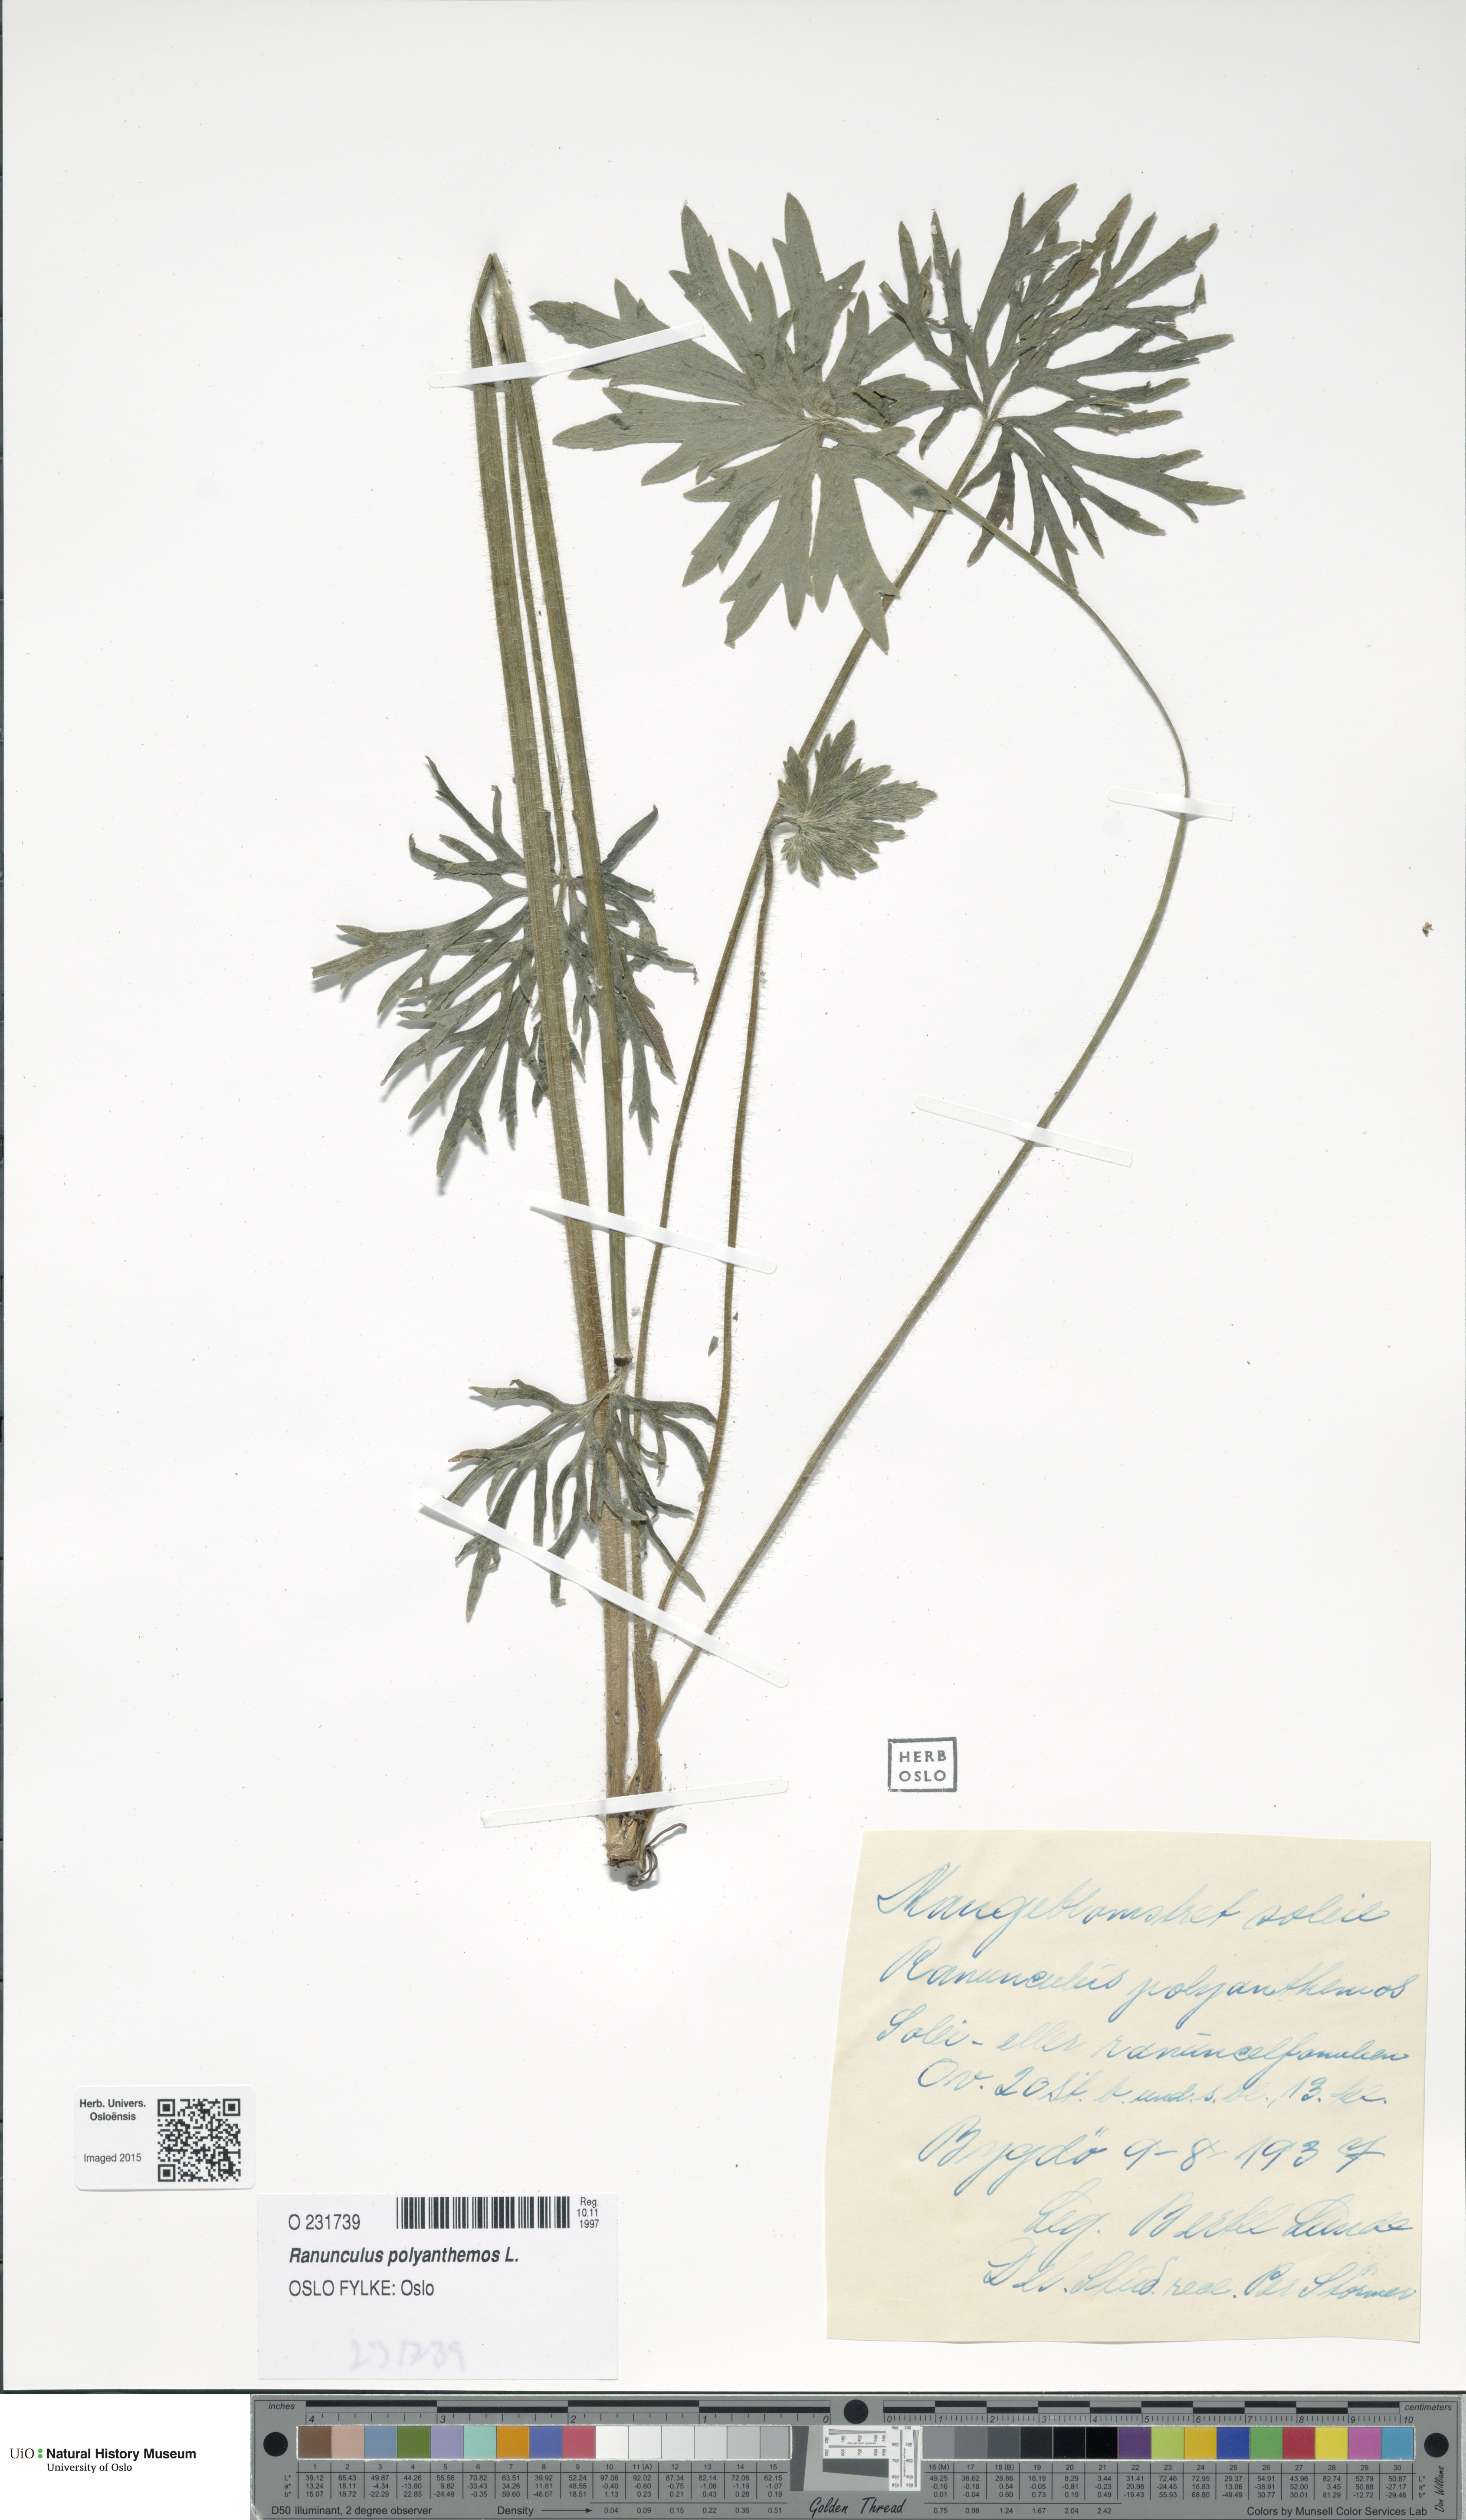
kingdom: Plantae
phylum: Tracheophyta
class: Magnoliopsida
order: Ranunculales
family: Ranunculaceae
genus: Ranunculus
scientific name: Ranunculus polyanthemos
